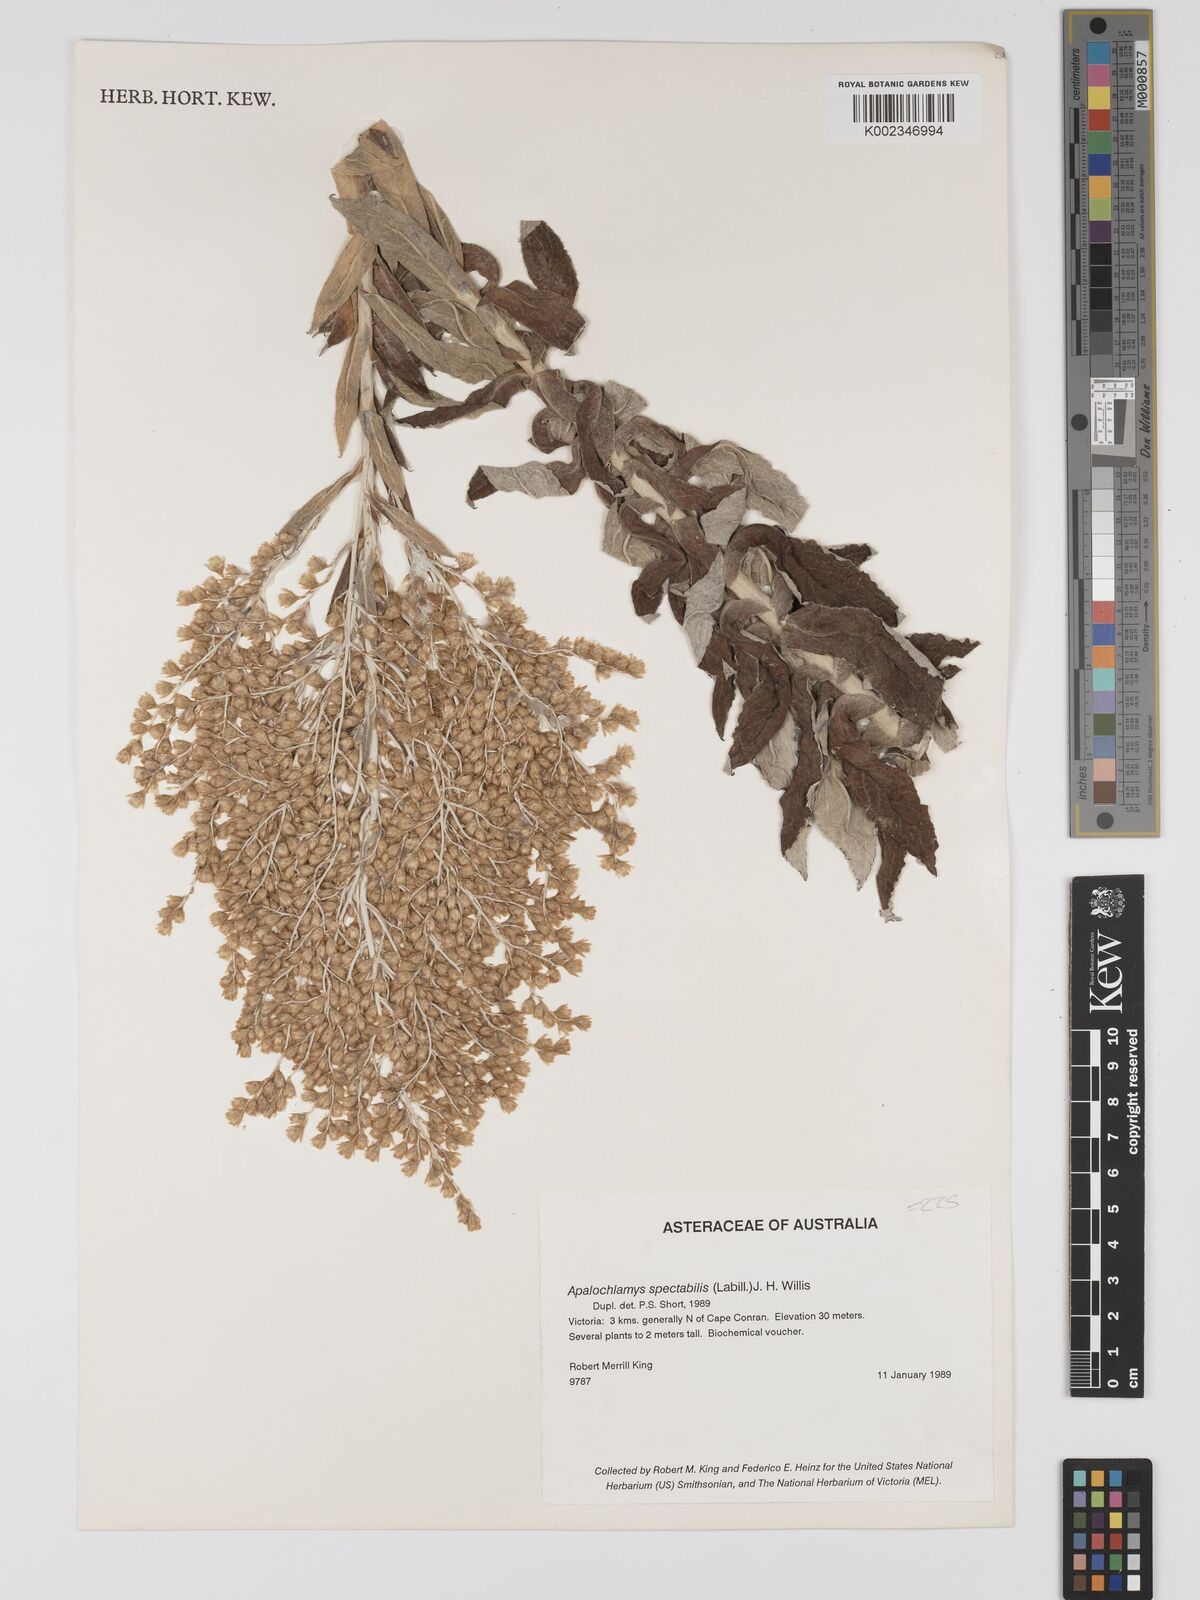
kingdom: Plantae
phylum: Tracheophyta
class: Magnoliopsida
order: Asterales
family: Asteraceae
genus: Apalochlamys
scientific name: Apalochlamys spectabilis
